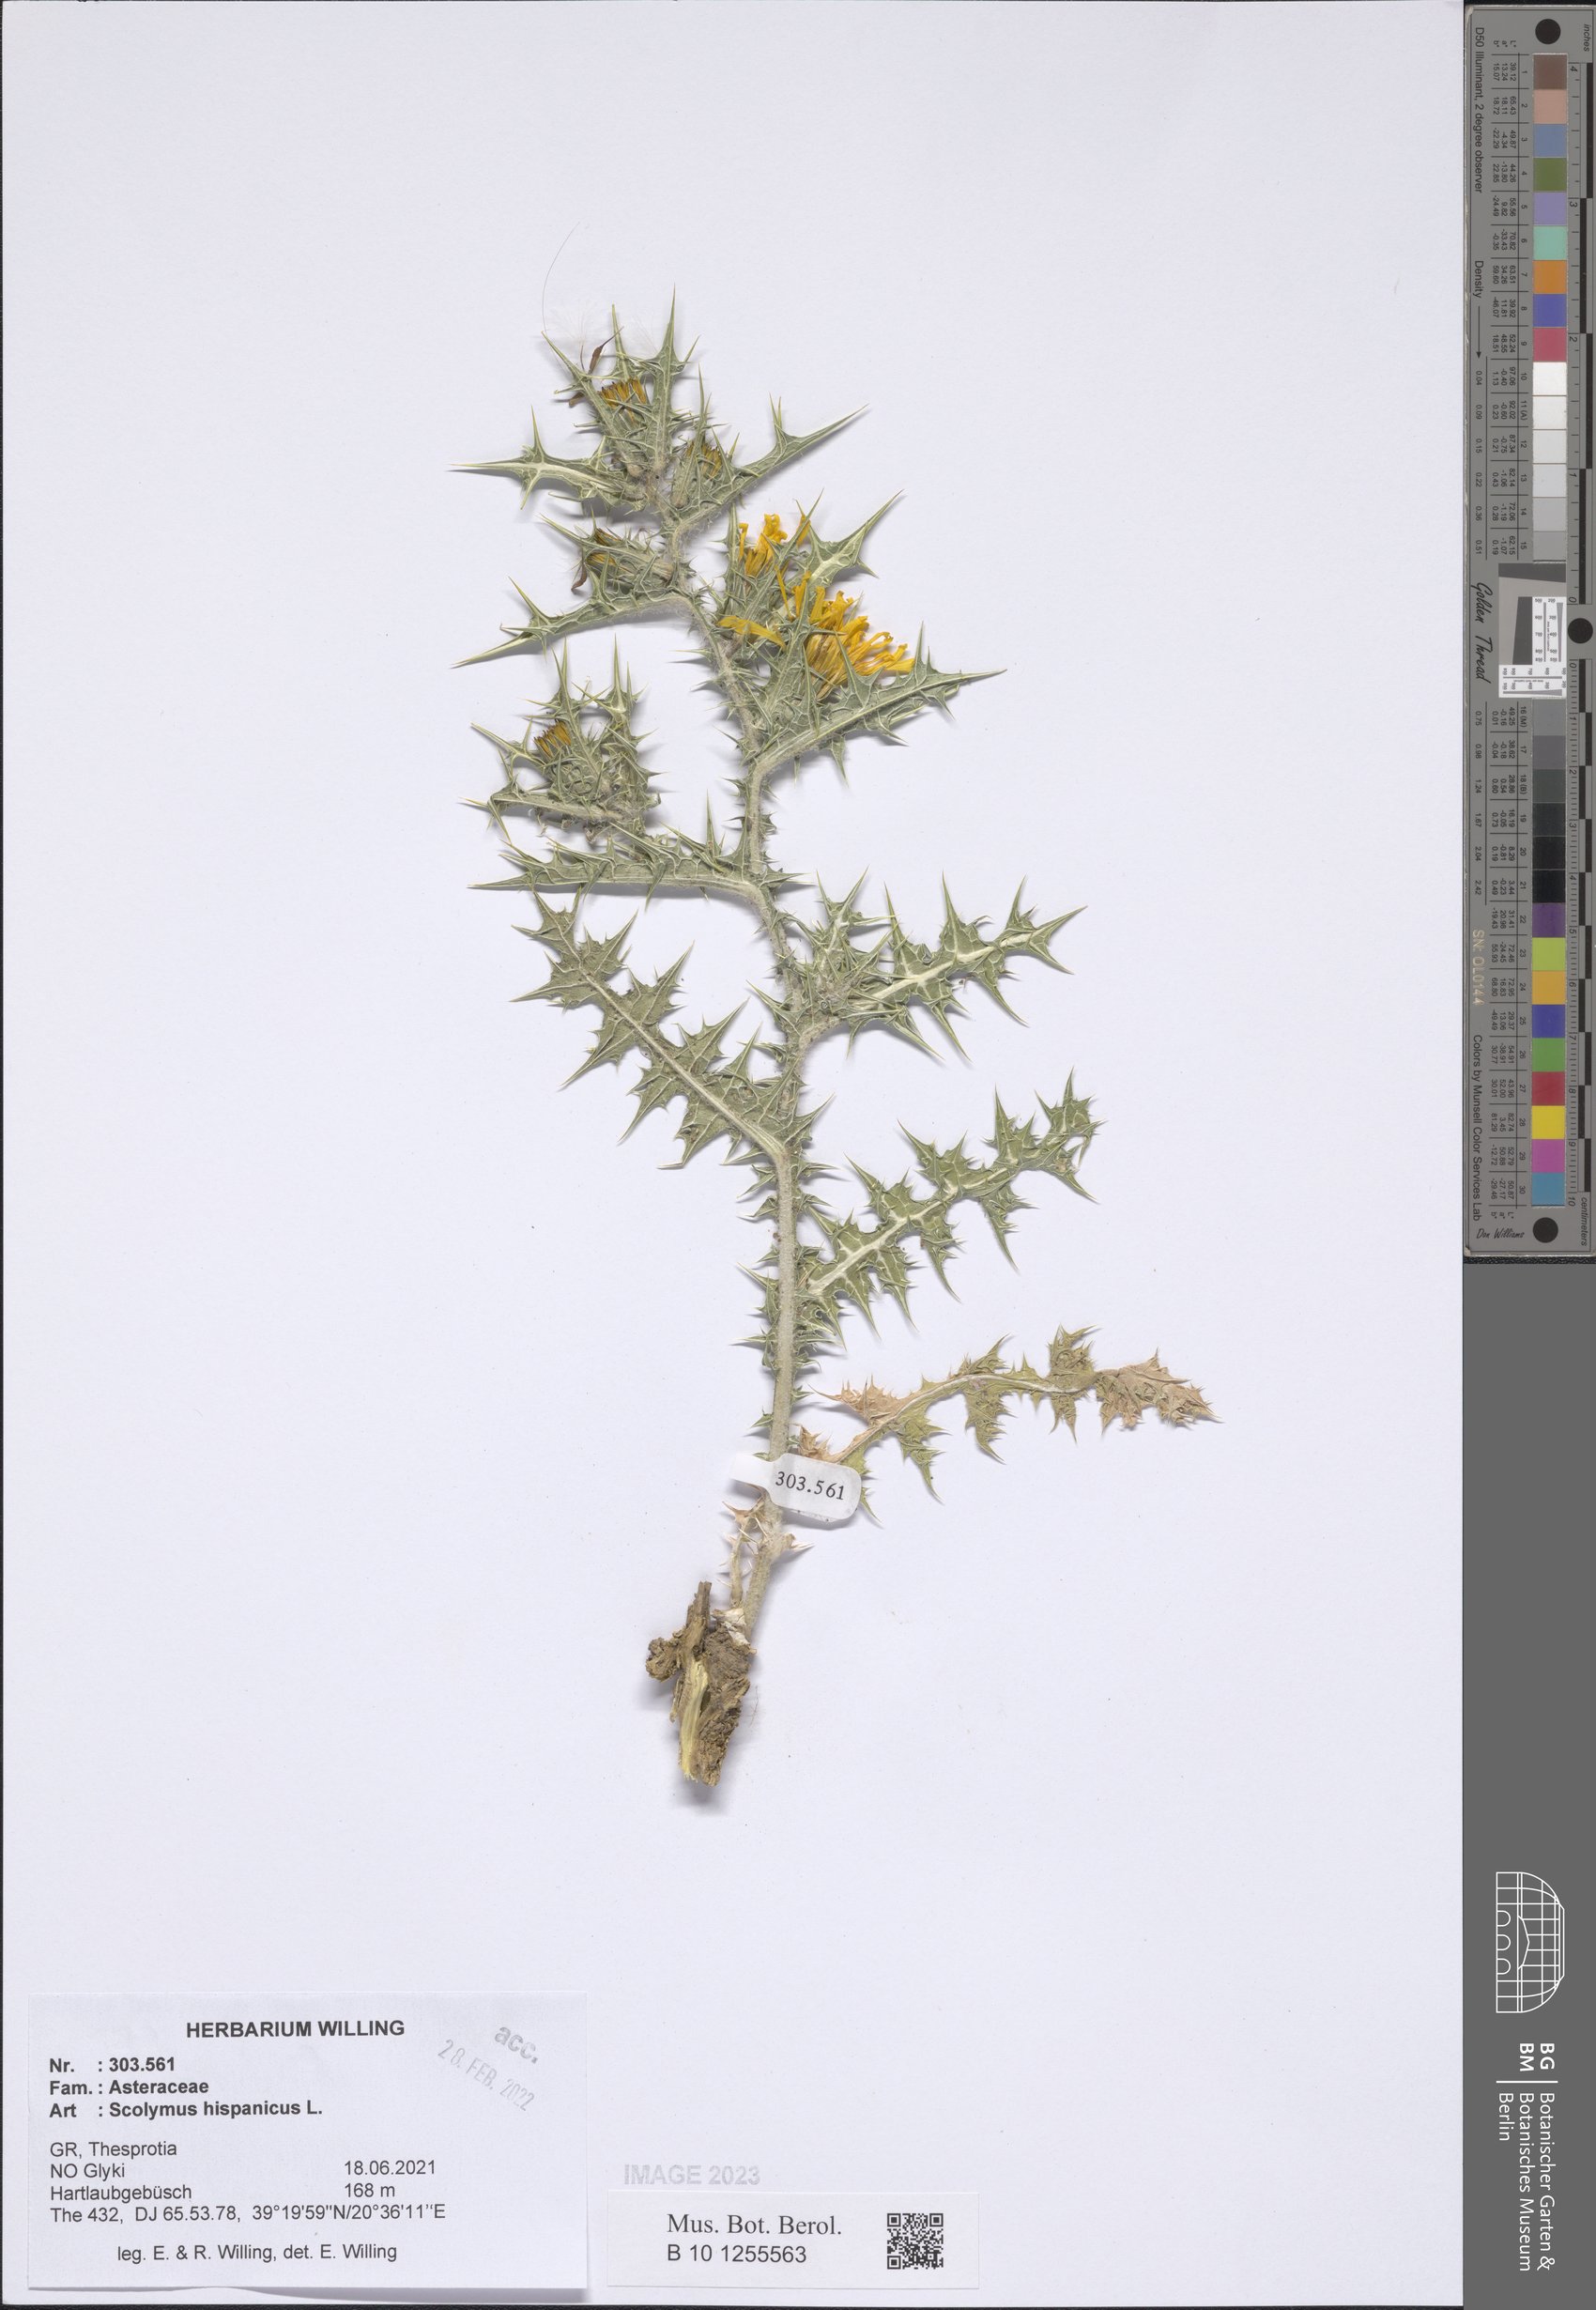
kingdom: Plantae
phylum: Tracheophyta
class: Magnoliopsida
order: Asterales
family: Asteraceae
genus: Scolymus
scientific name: Scolymus hispanicus
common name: Golden thistle
